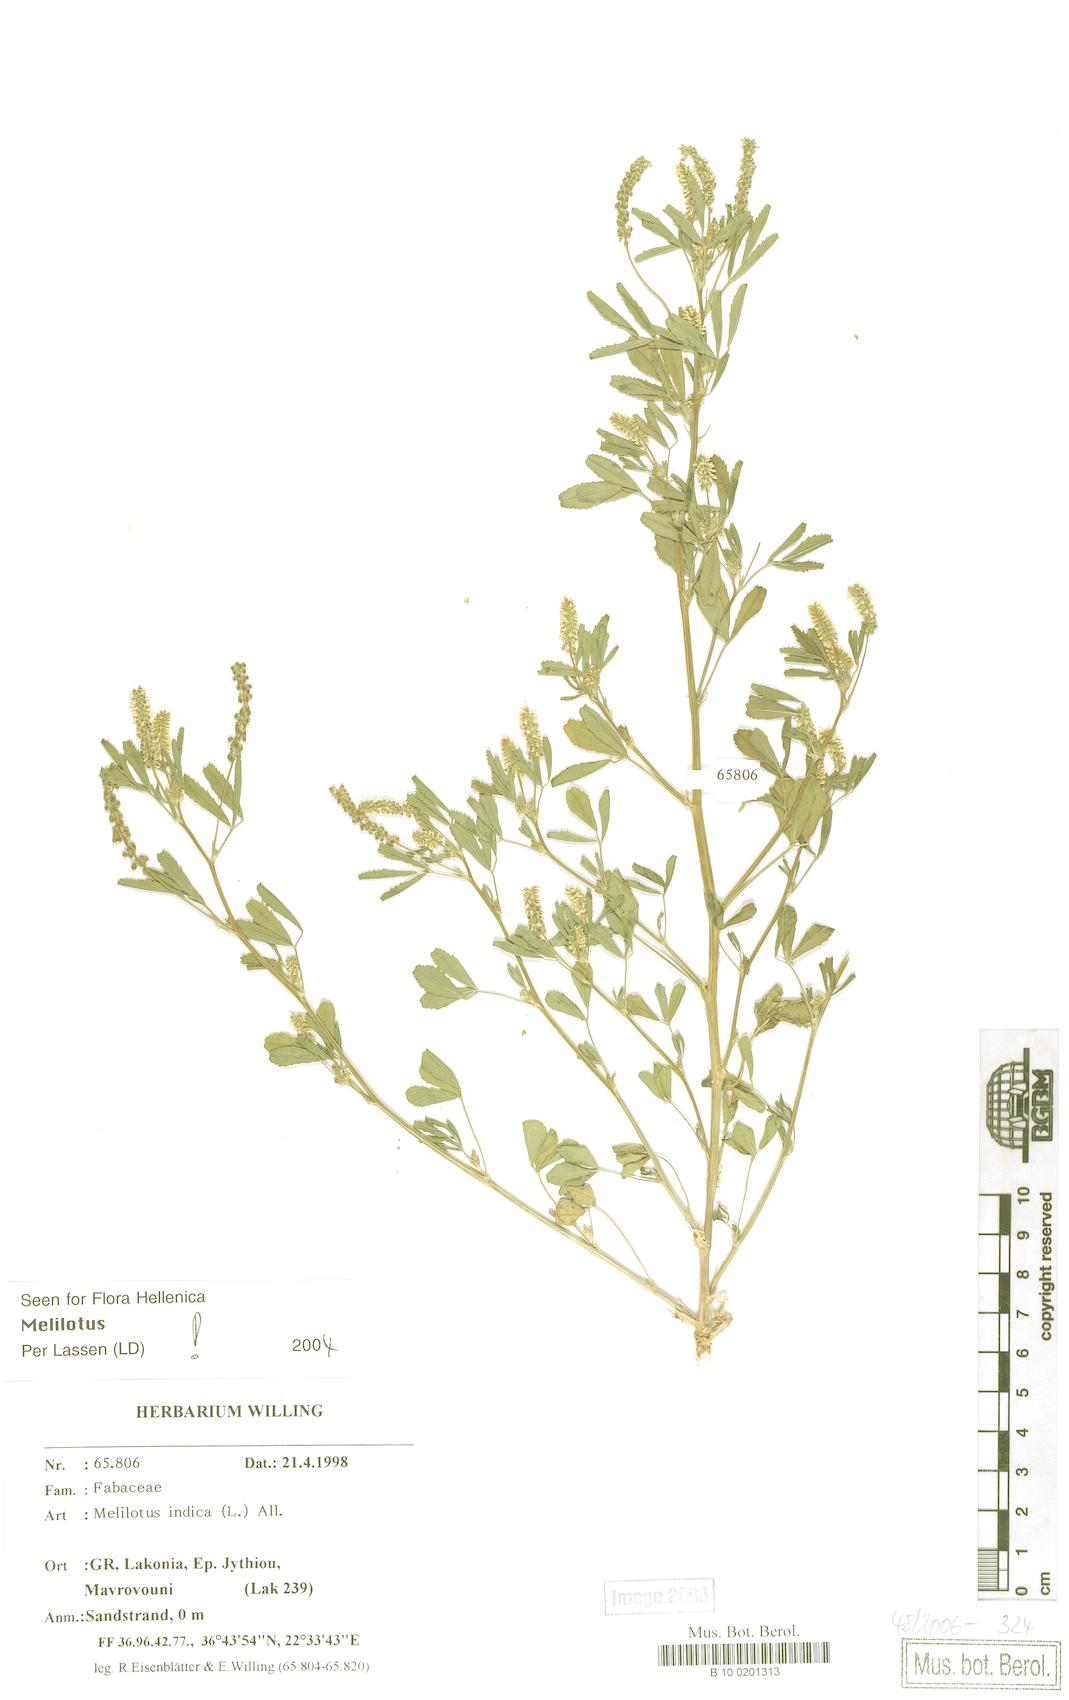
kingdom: Plantae
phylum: Tracheophyta
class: Magnoliopsida
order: Fabales
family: Fabaceae
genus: Melilotus
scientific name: Melilotus indicus
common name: Small melilot
